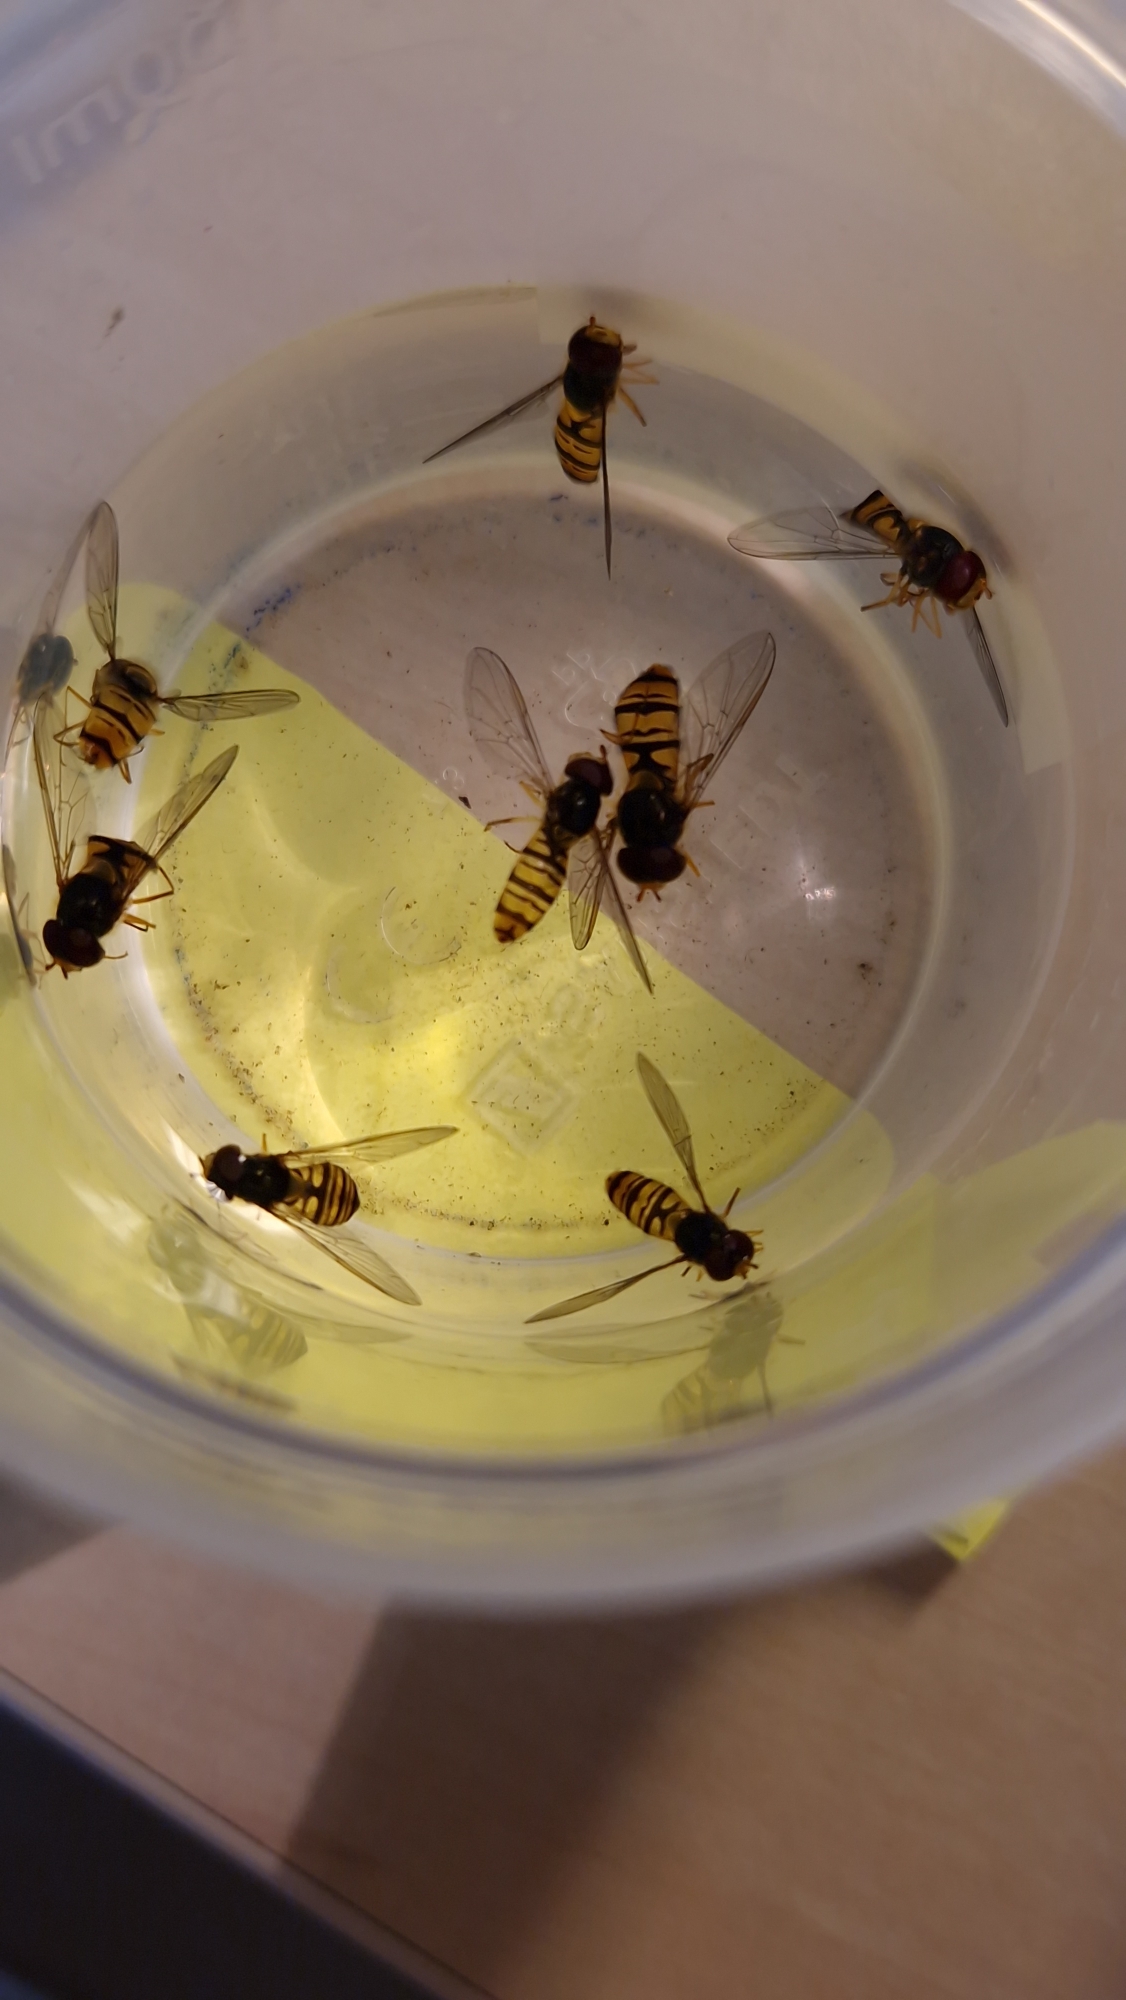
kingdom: Animalia
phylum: Arthropoda
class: Insecta
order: Diptera
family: Syrphidae
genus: Episyrphus
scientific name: Episyrphus balteatus
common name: Dobbeltbåndet svirreflue
